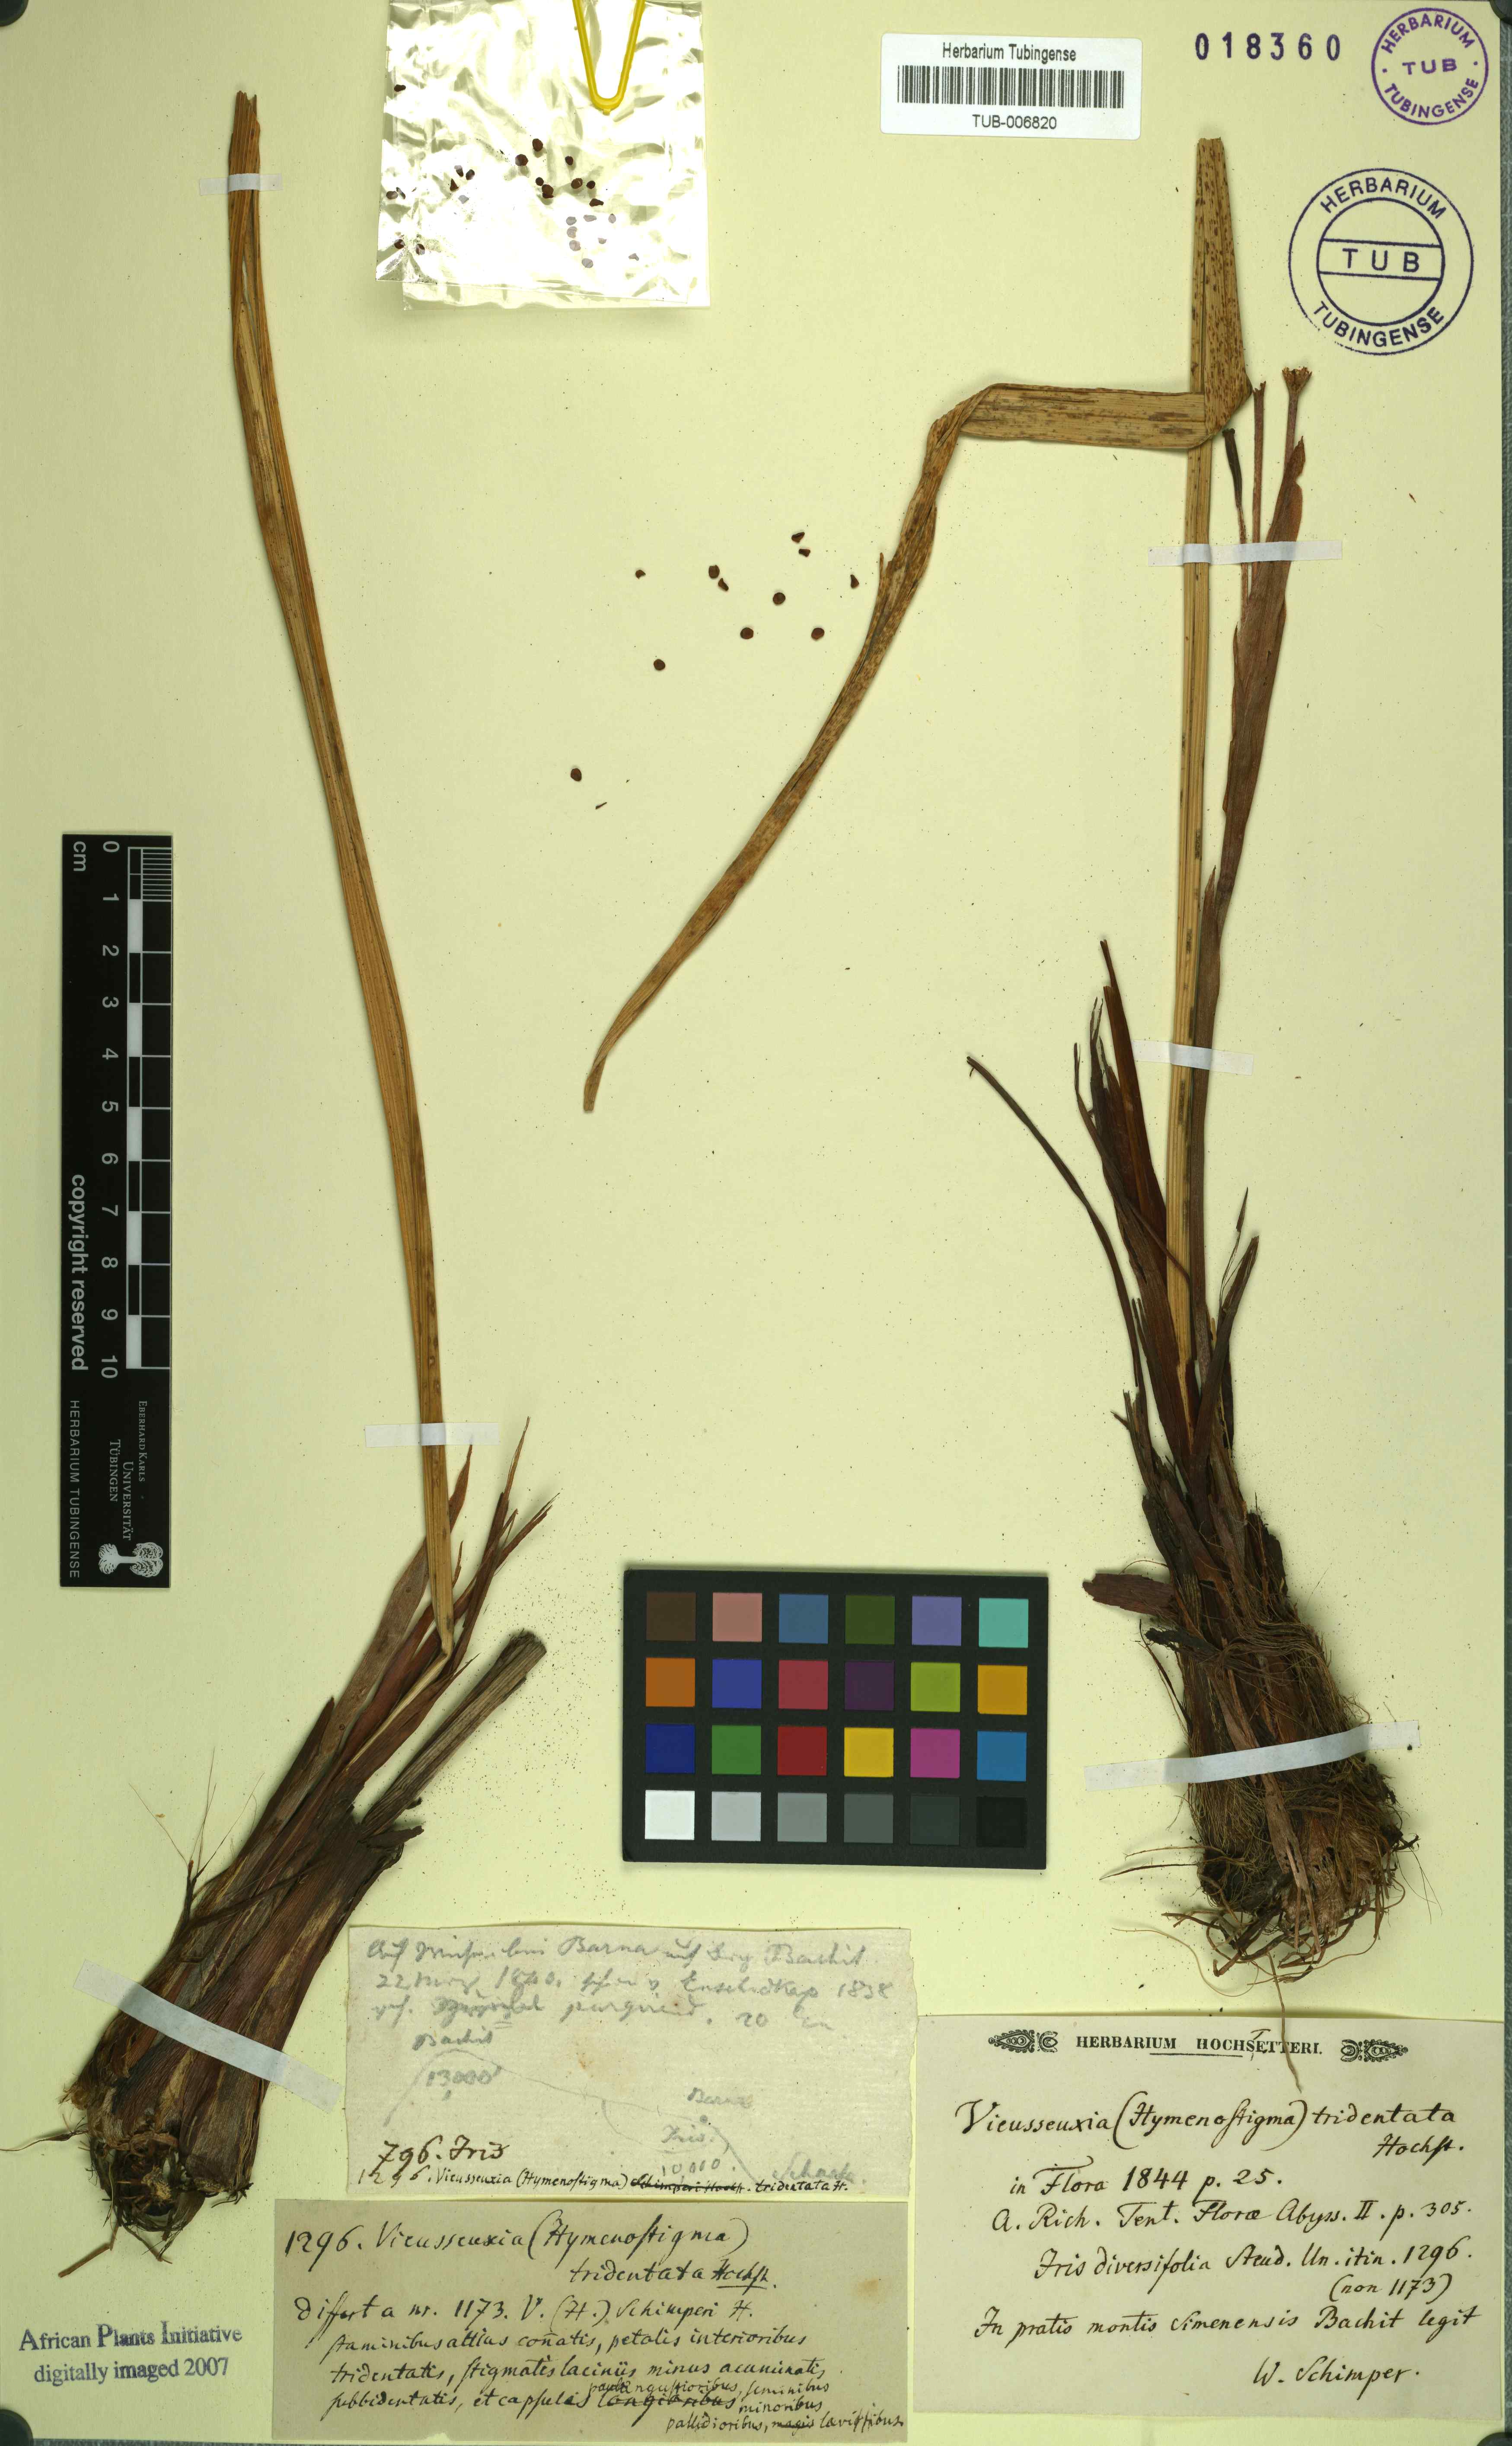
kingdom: Plantae
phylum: Tracheophyta
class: Liliopsida
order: Asparagales
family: Iridaceae
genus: Moraea
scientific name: Moraea schimperi
